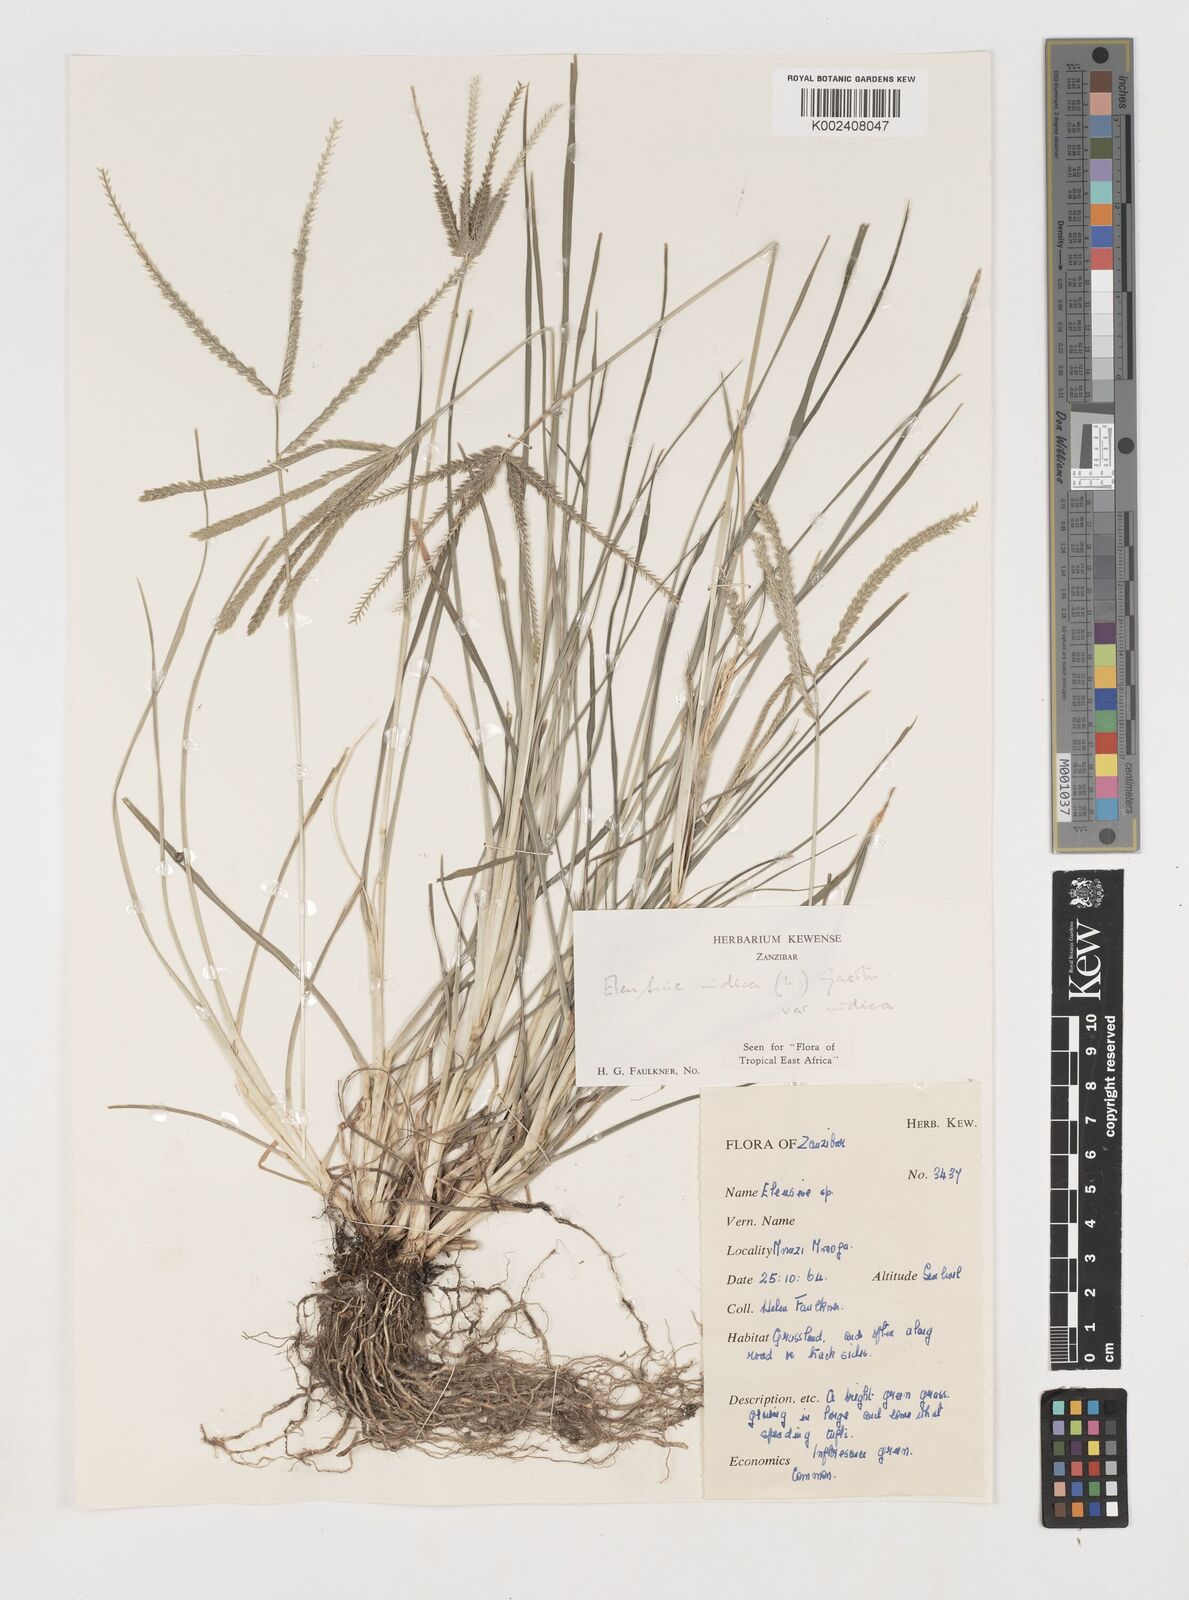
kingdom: Plantae
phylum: Tracheophyta
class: Liliopsida
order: Poales
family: Poaceae
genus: Eleusine
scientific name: Eleusine indica
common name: Yard-grass
